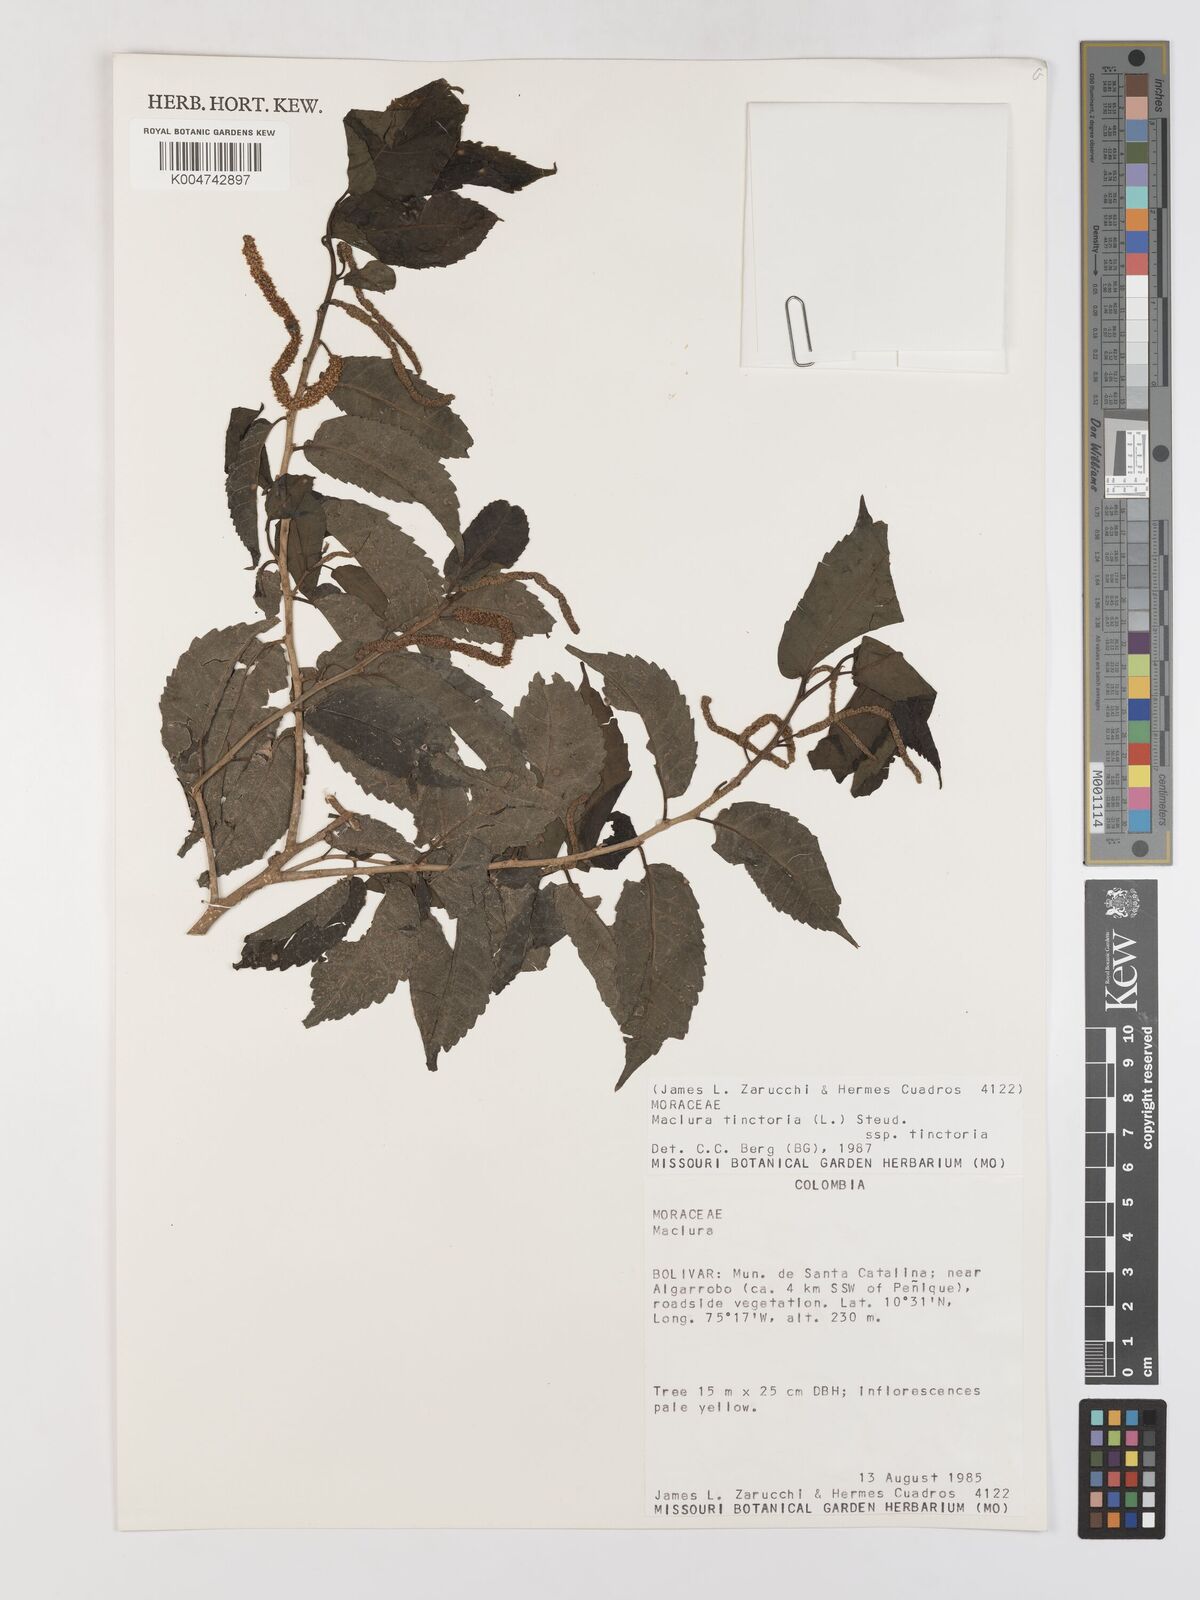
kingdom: Plantae
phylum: Tracheophyta
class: Magnoliopsida
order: Rosales
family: Moraceae
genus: Maclura
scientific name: Maclura tinctoria
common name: Old fustic
